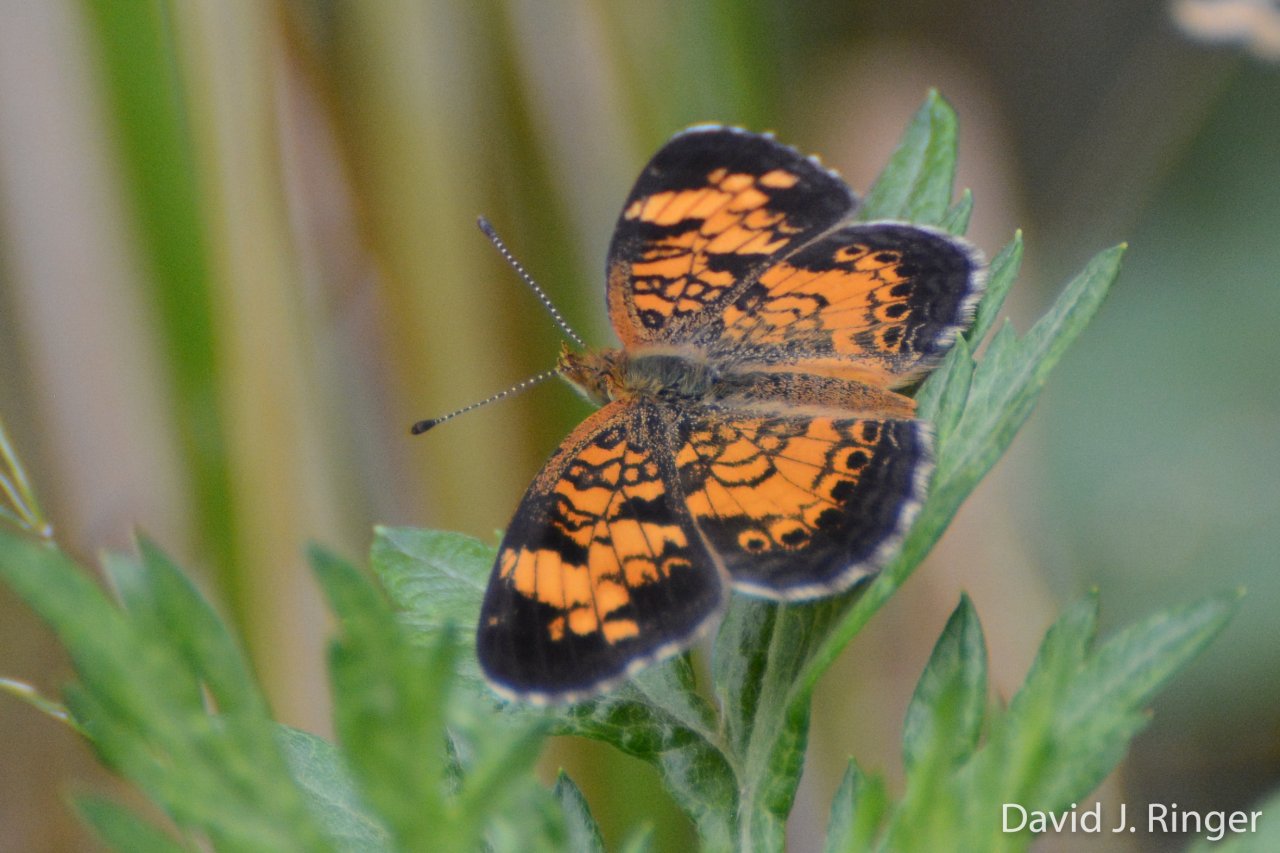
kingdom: Animalia
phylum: Arthropoda
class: Insecta
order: Lepidoptera
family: Nymphalidae
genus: Phyciodes
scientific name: Phyciodes tharos
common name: Pearl Crescent
